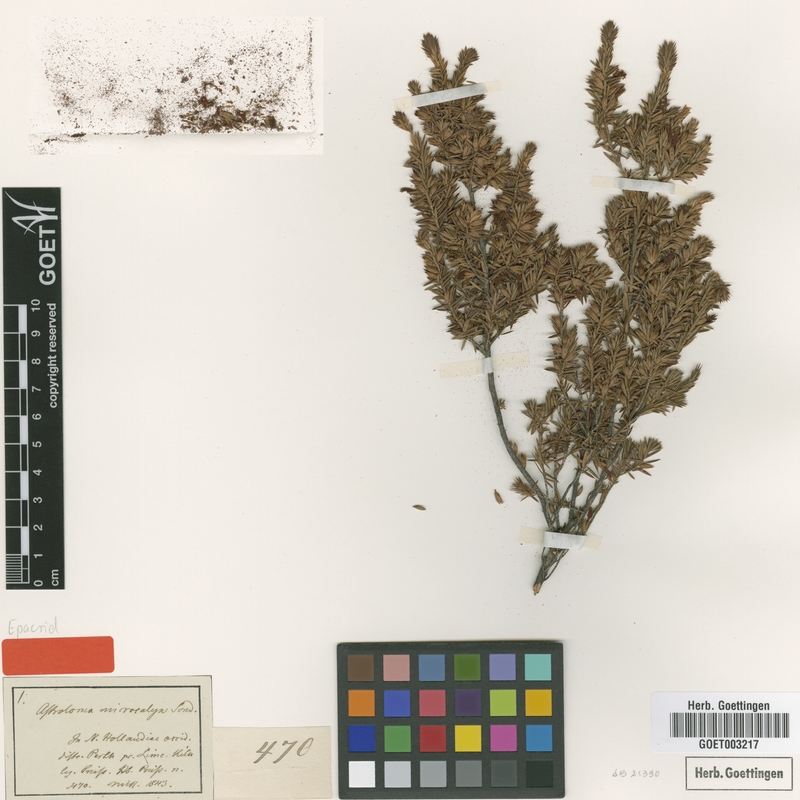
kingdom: Plantae
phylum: Tracheophyta
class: Magnoliopsida
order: Ericales
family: Ericaceae
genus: Styphelia
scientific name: Styphelia microcalyx
